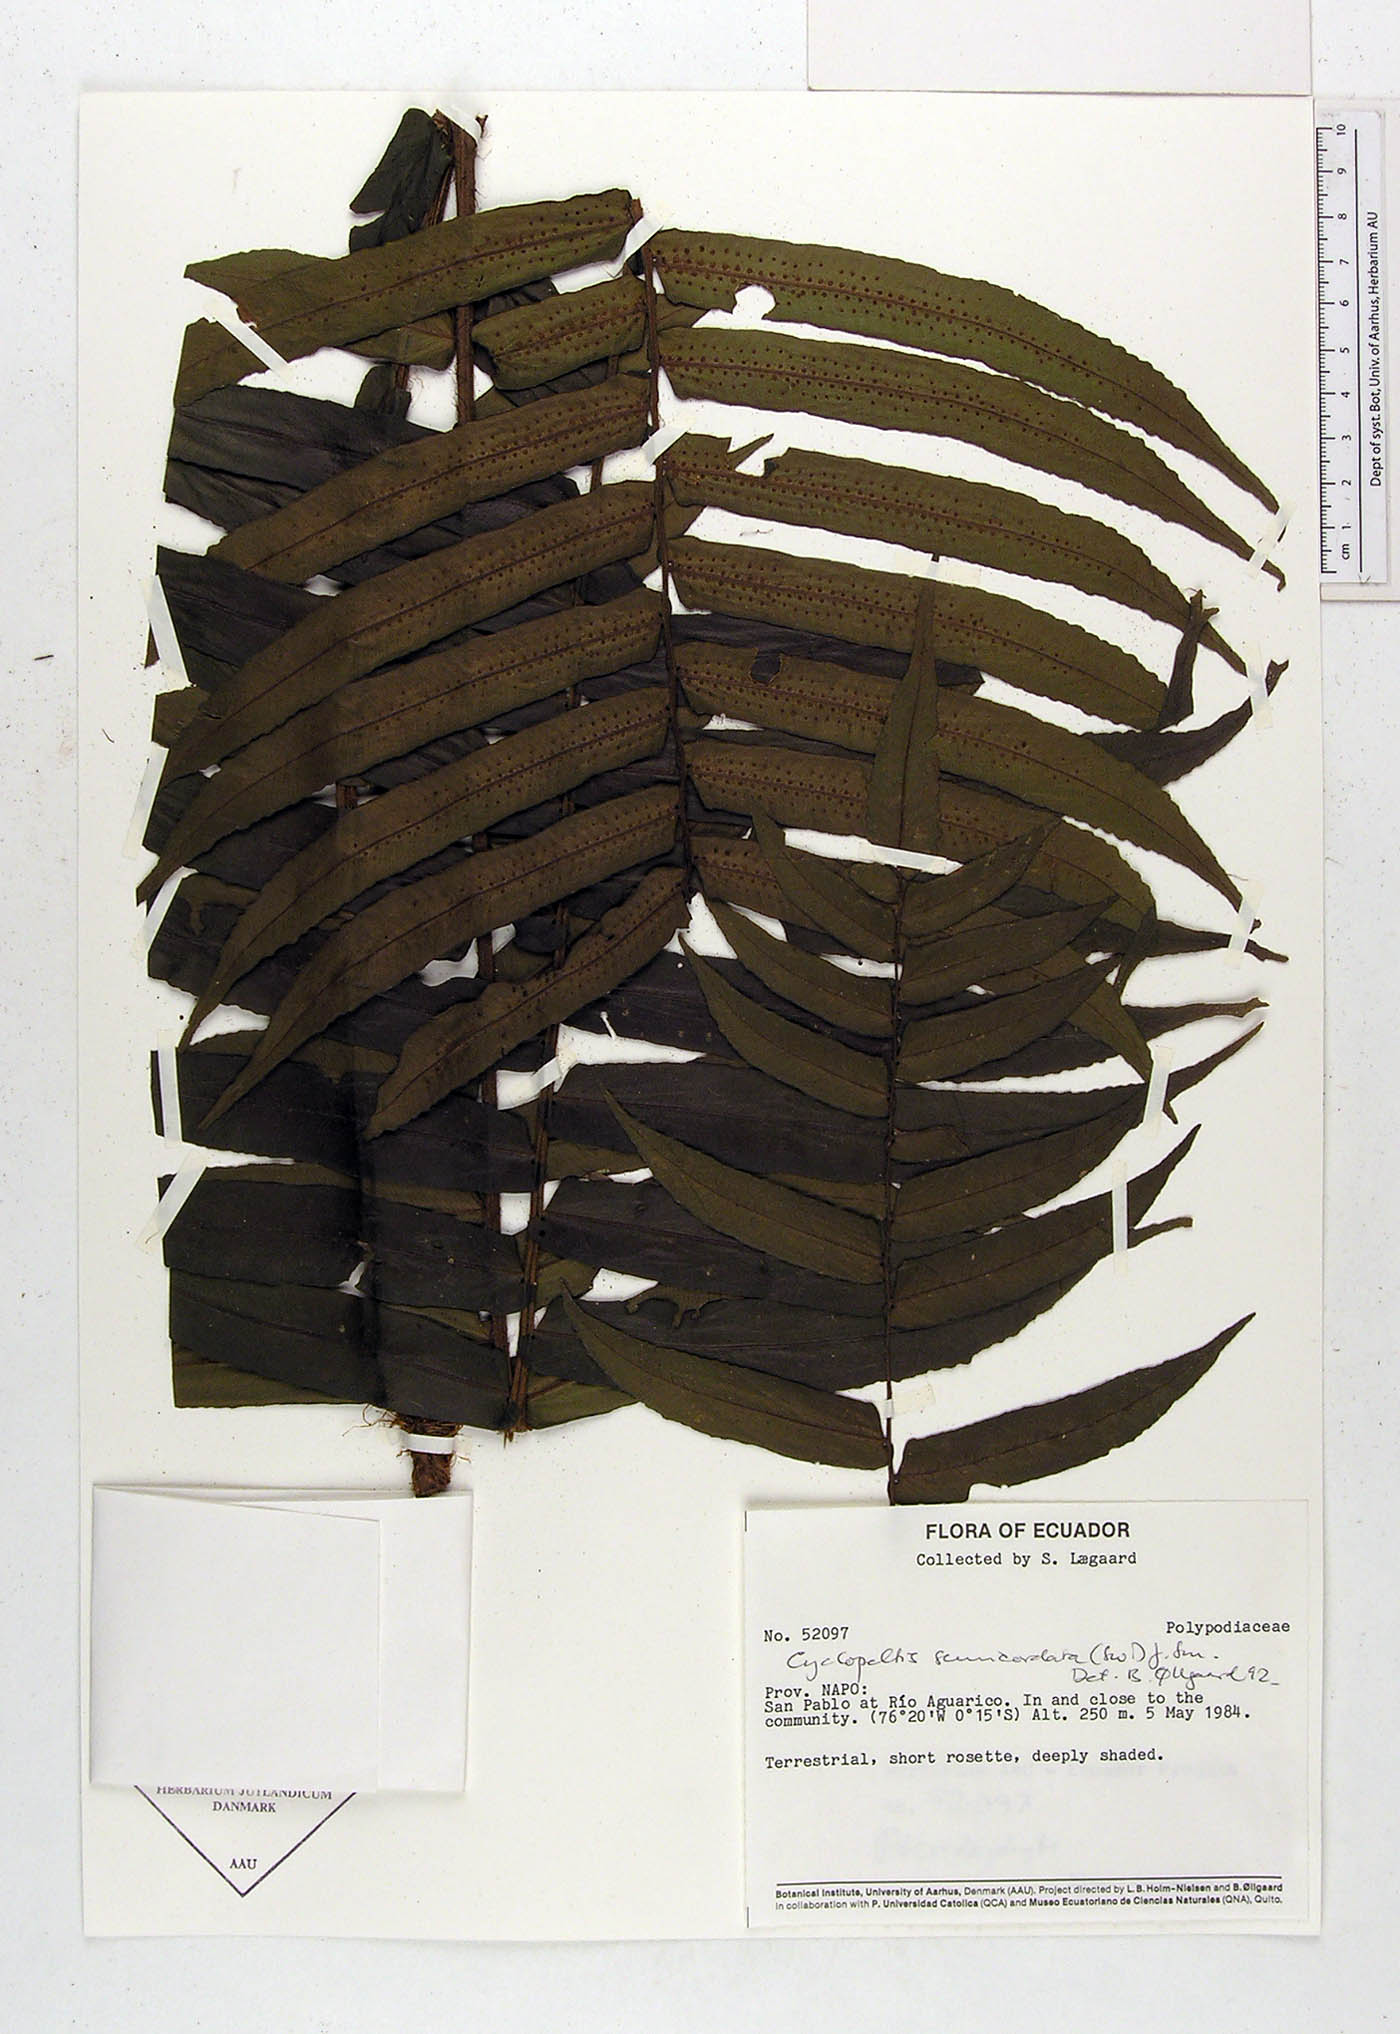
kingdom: Plantae
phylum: Tracheophyta
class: Polypodiopsida
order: Polypodiales
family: Polypodiaceae
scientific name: Polypodiaceae
